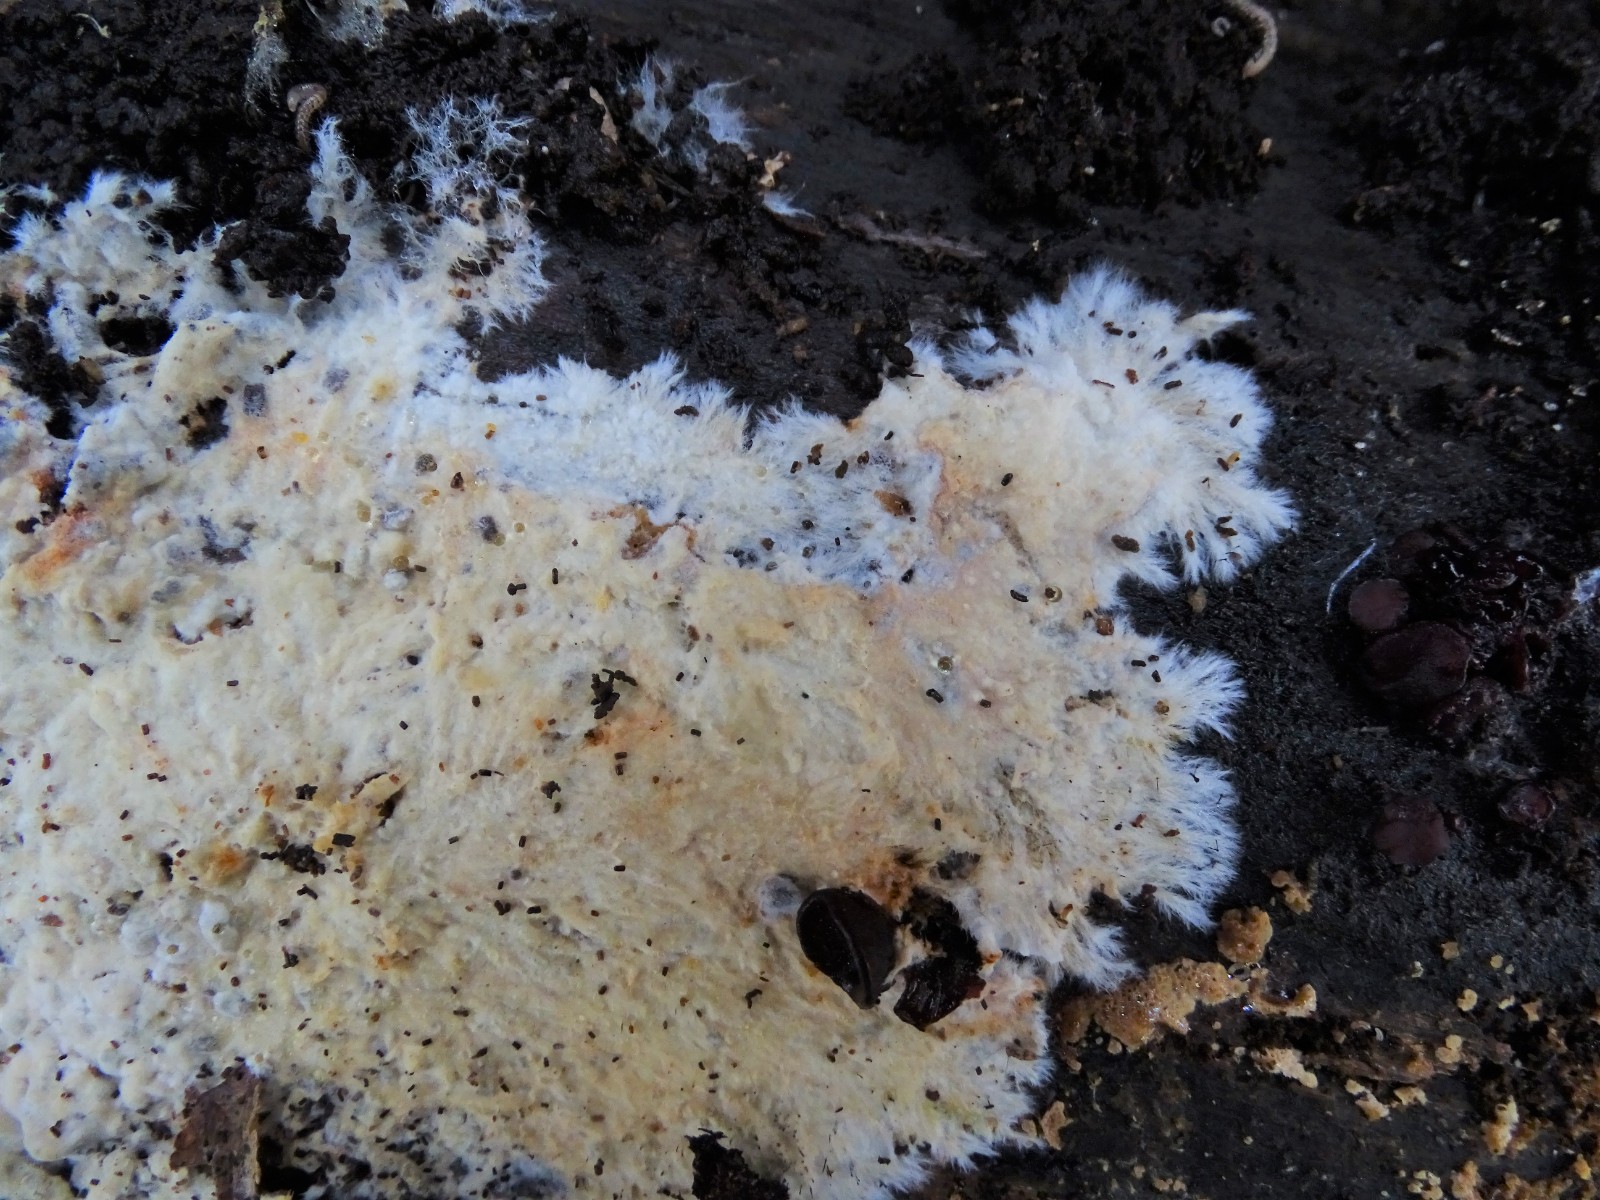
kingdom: Fungi
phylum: Basidiomycota
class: Agaricomycetes
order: Polyporales
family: Phanerochaetaceae
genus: Phanerochaete
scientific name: Phanerochaete sordida
